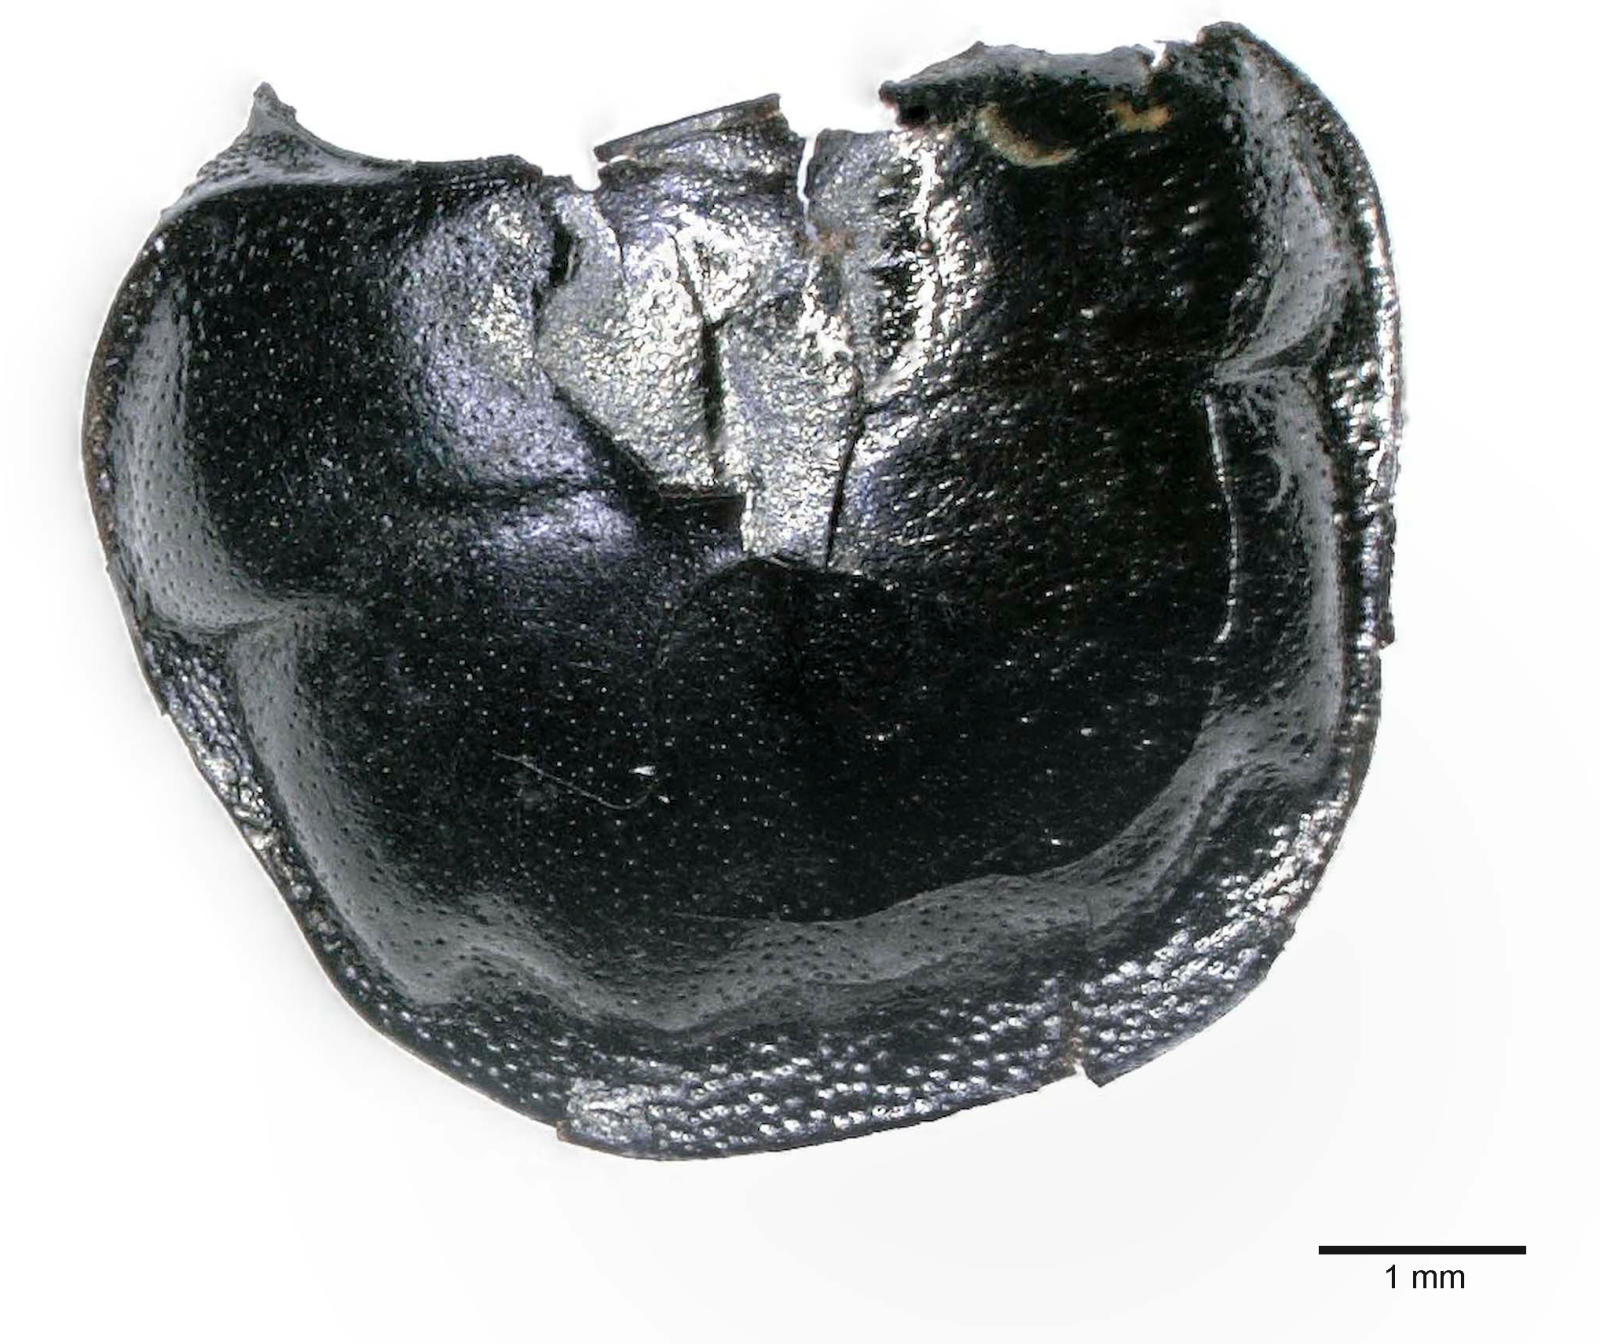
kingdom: Animalia
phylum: Arthropoda
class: Insecta
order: Coleoptera
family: Carabidae
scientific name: Carabidae
